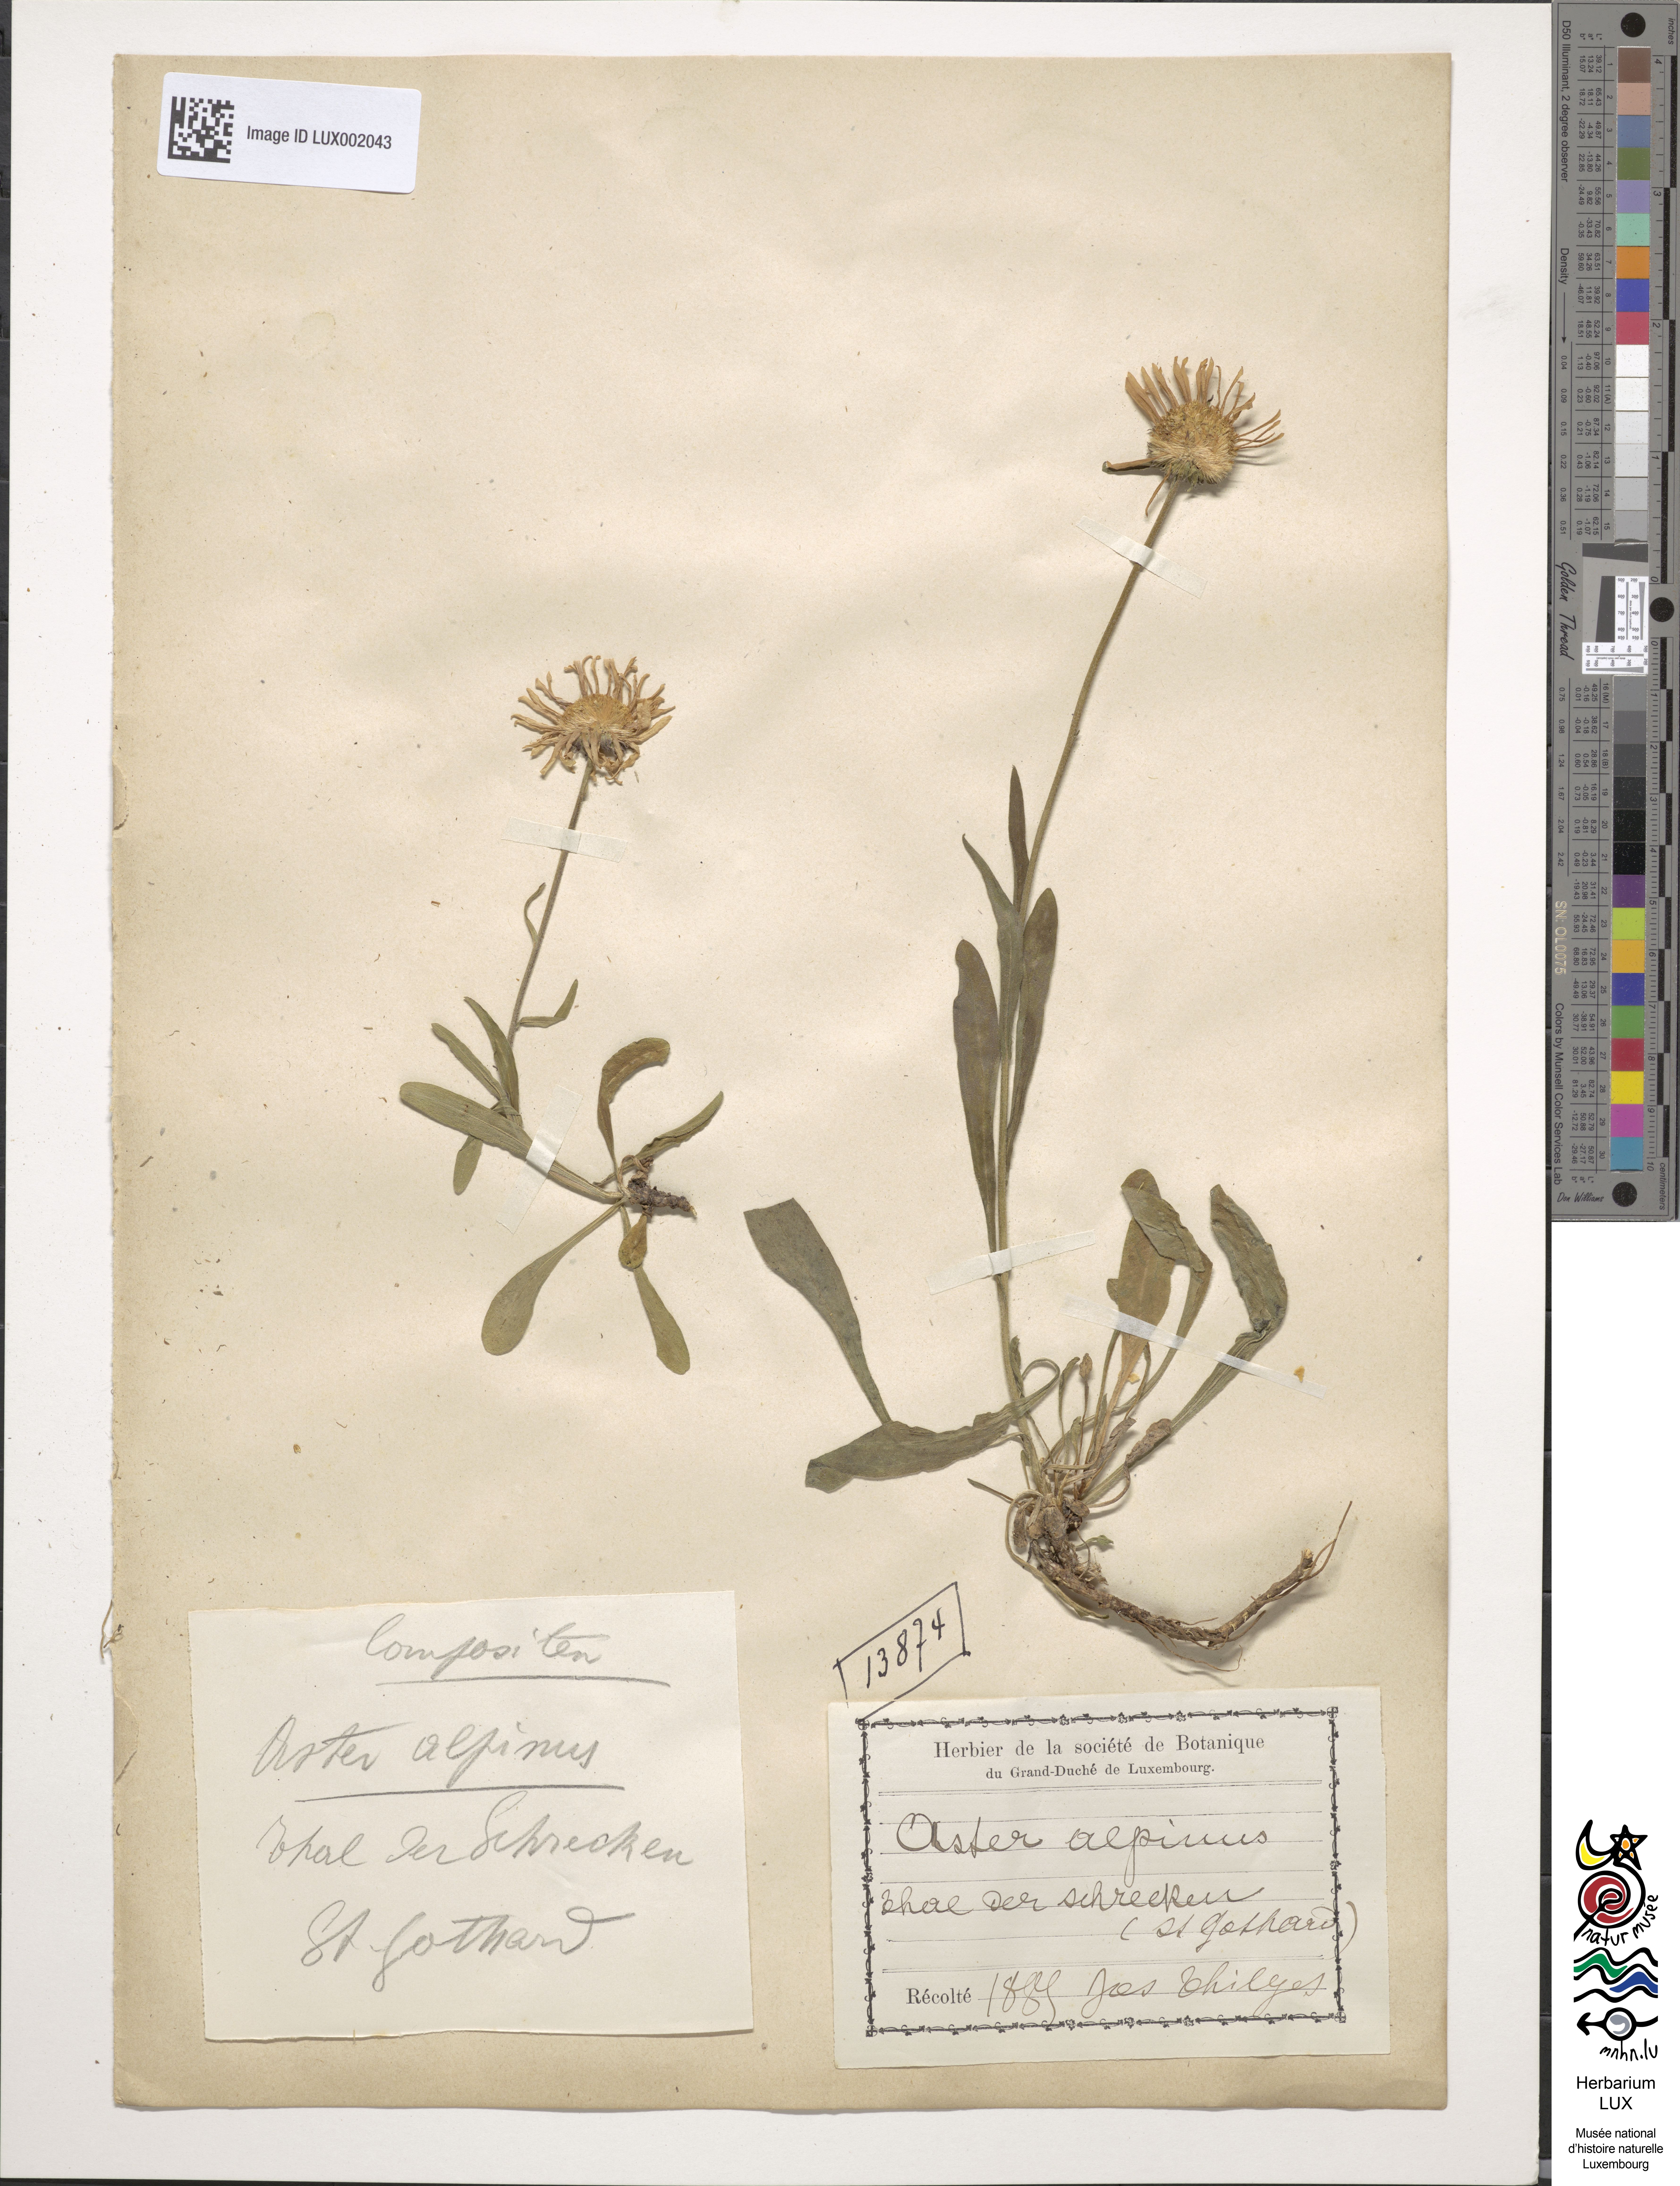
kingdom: Plantae
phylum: Tracheophyta
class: Magnoliopsida
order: Asterales
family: Asteraceae
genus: Aster
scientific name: Aster alpinus
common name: Alpine aster
